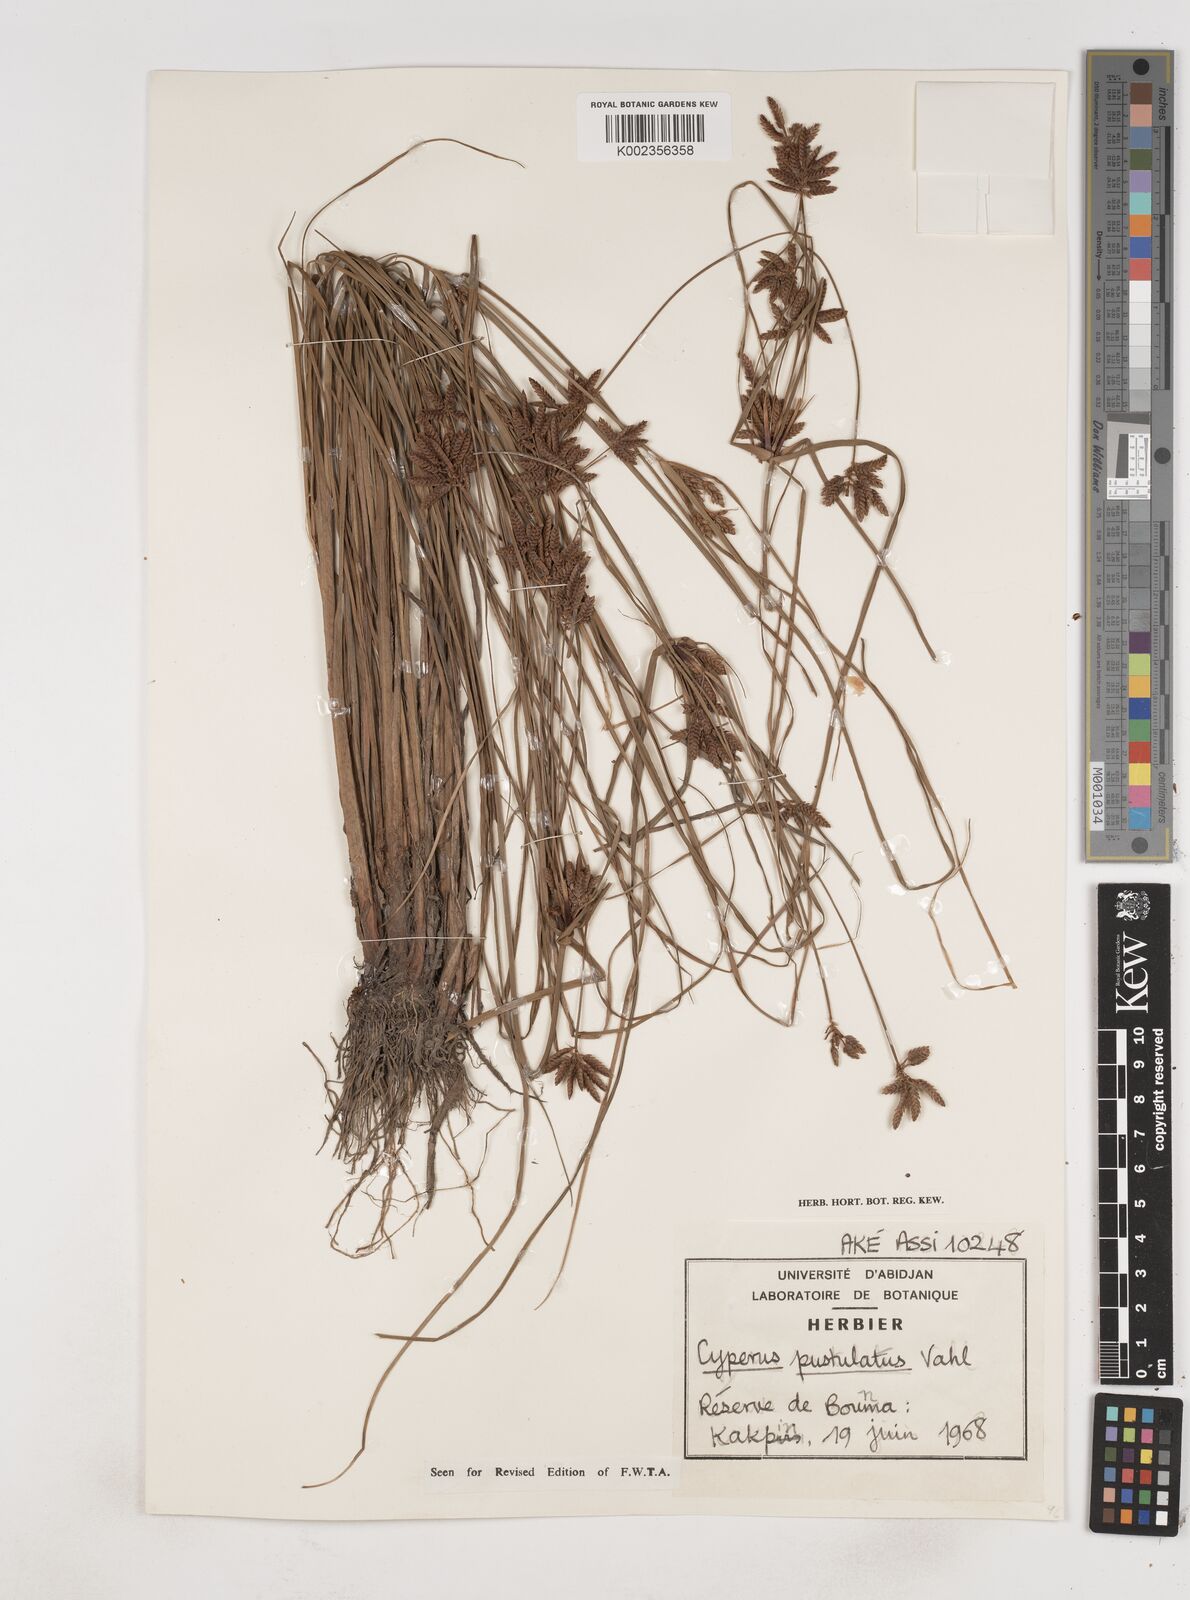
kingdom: Plantae
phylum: Tracheophyta
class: Liliopsida
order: Poales
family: Cyperaceae
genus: Cyperus
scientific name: Cyperus pustulatus
